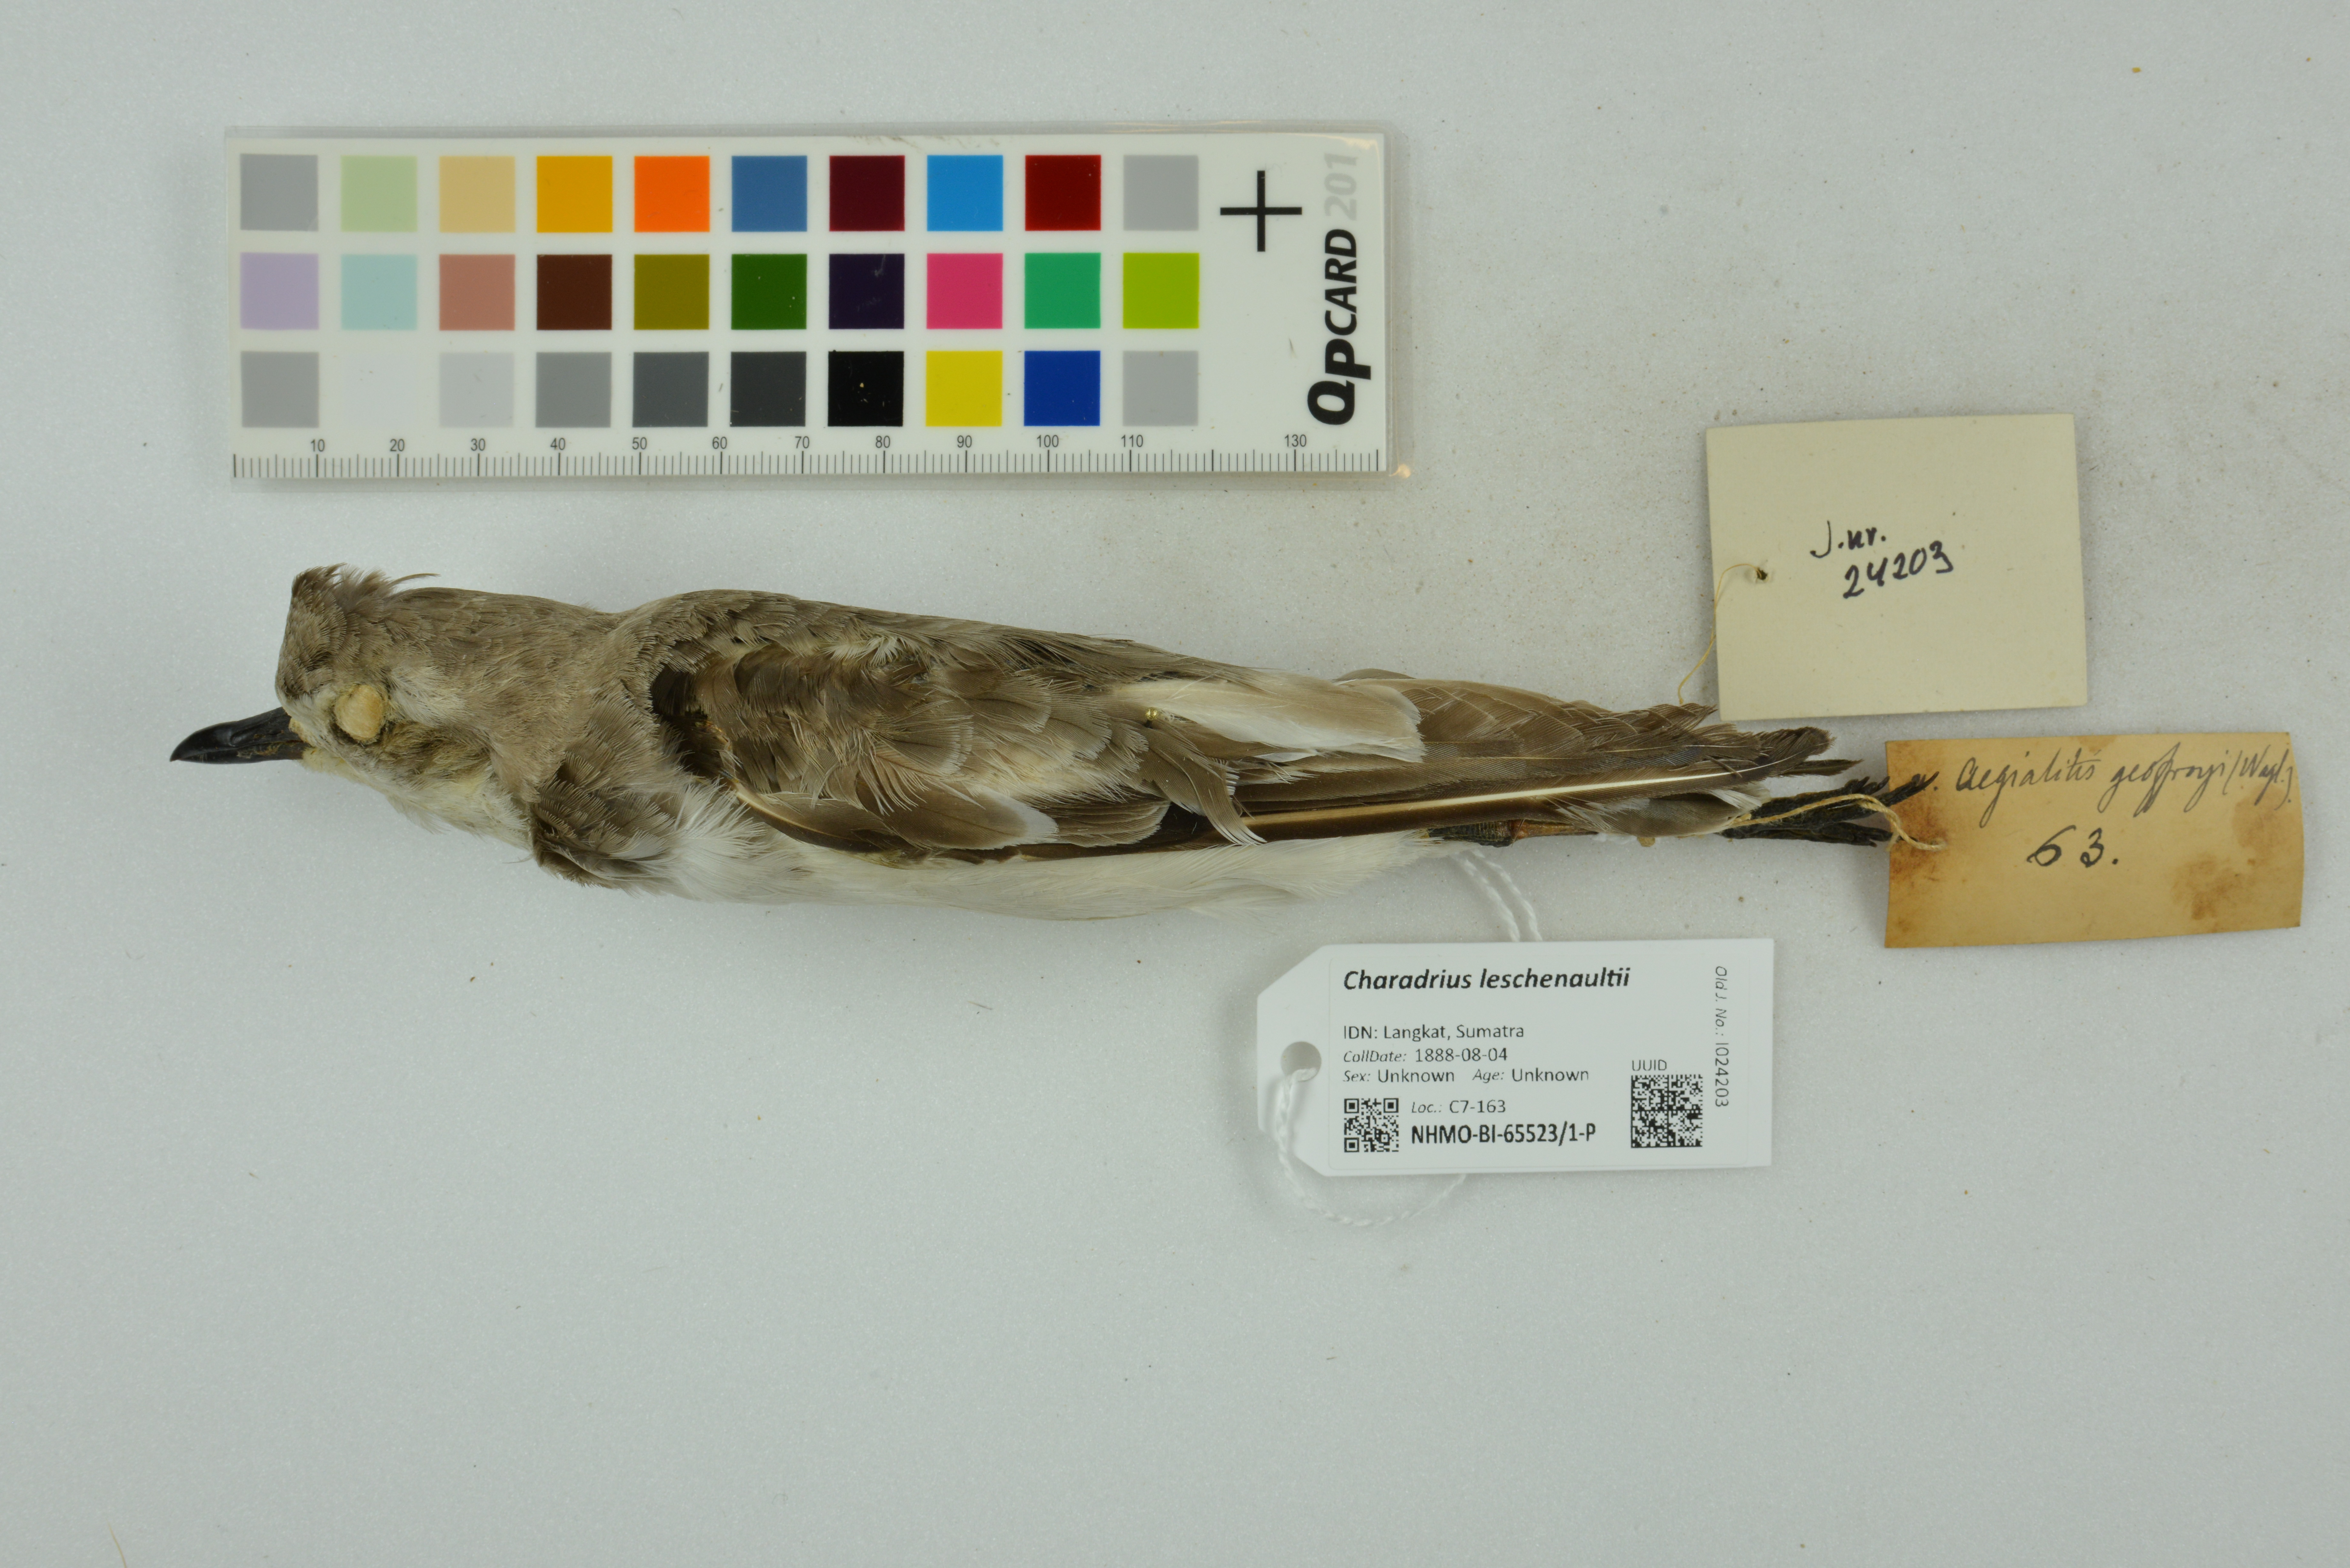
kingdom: Animalia
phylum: Chordata
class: Aves
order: Charadriiformes
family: Charadriidae
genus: Charadrius
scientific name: Charadrius leschenaultii
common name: Greater sand plover
